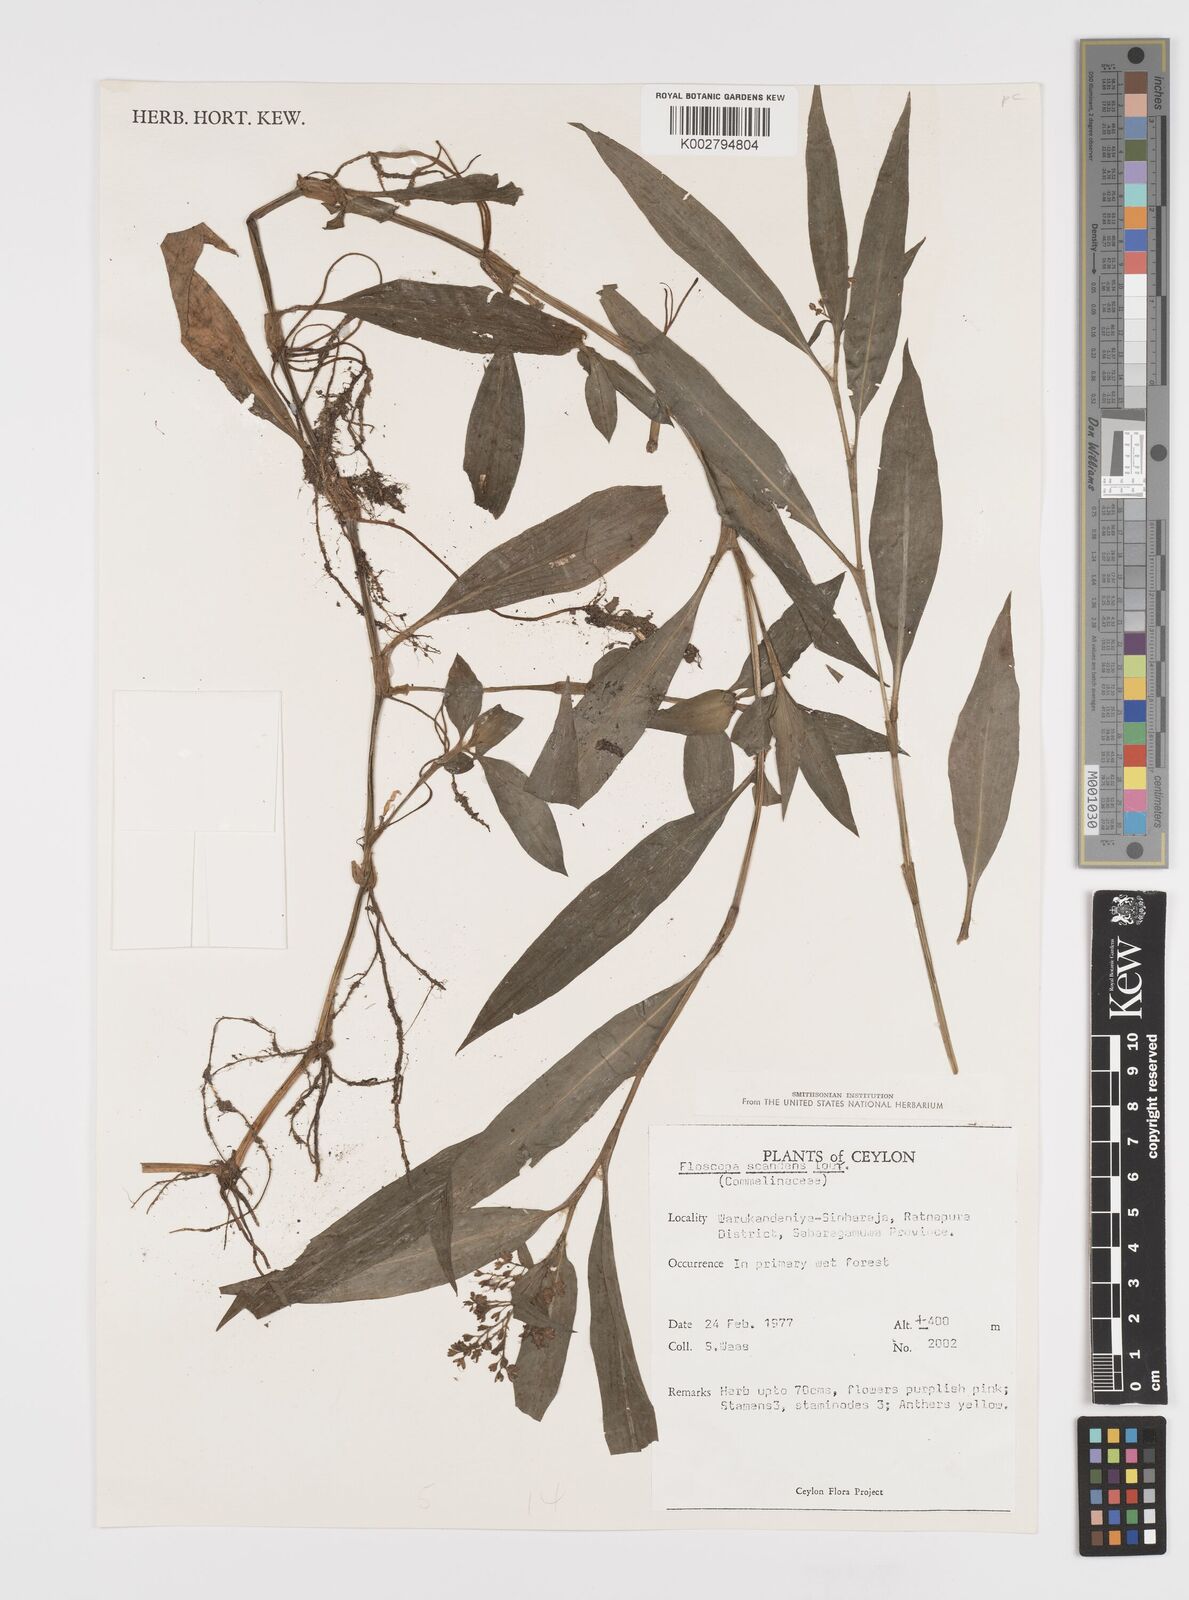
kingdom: Plantae
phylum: Tracheophyta
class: Liliopsida
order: Commelinales
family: Commelinaceae
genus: Floscopa
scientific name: Floscopa scandens
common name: Climbing flower cup
